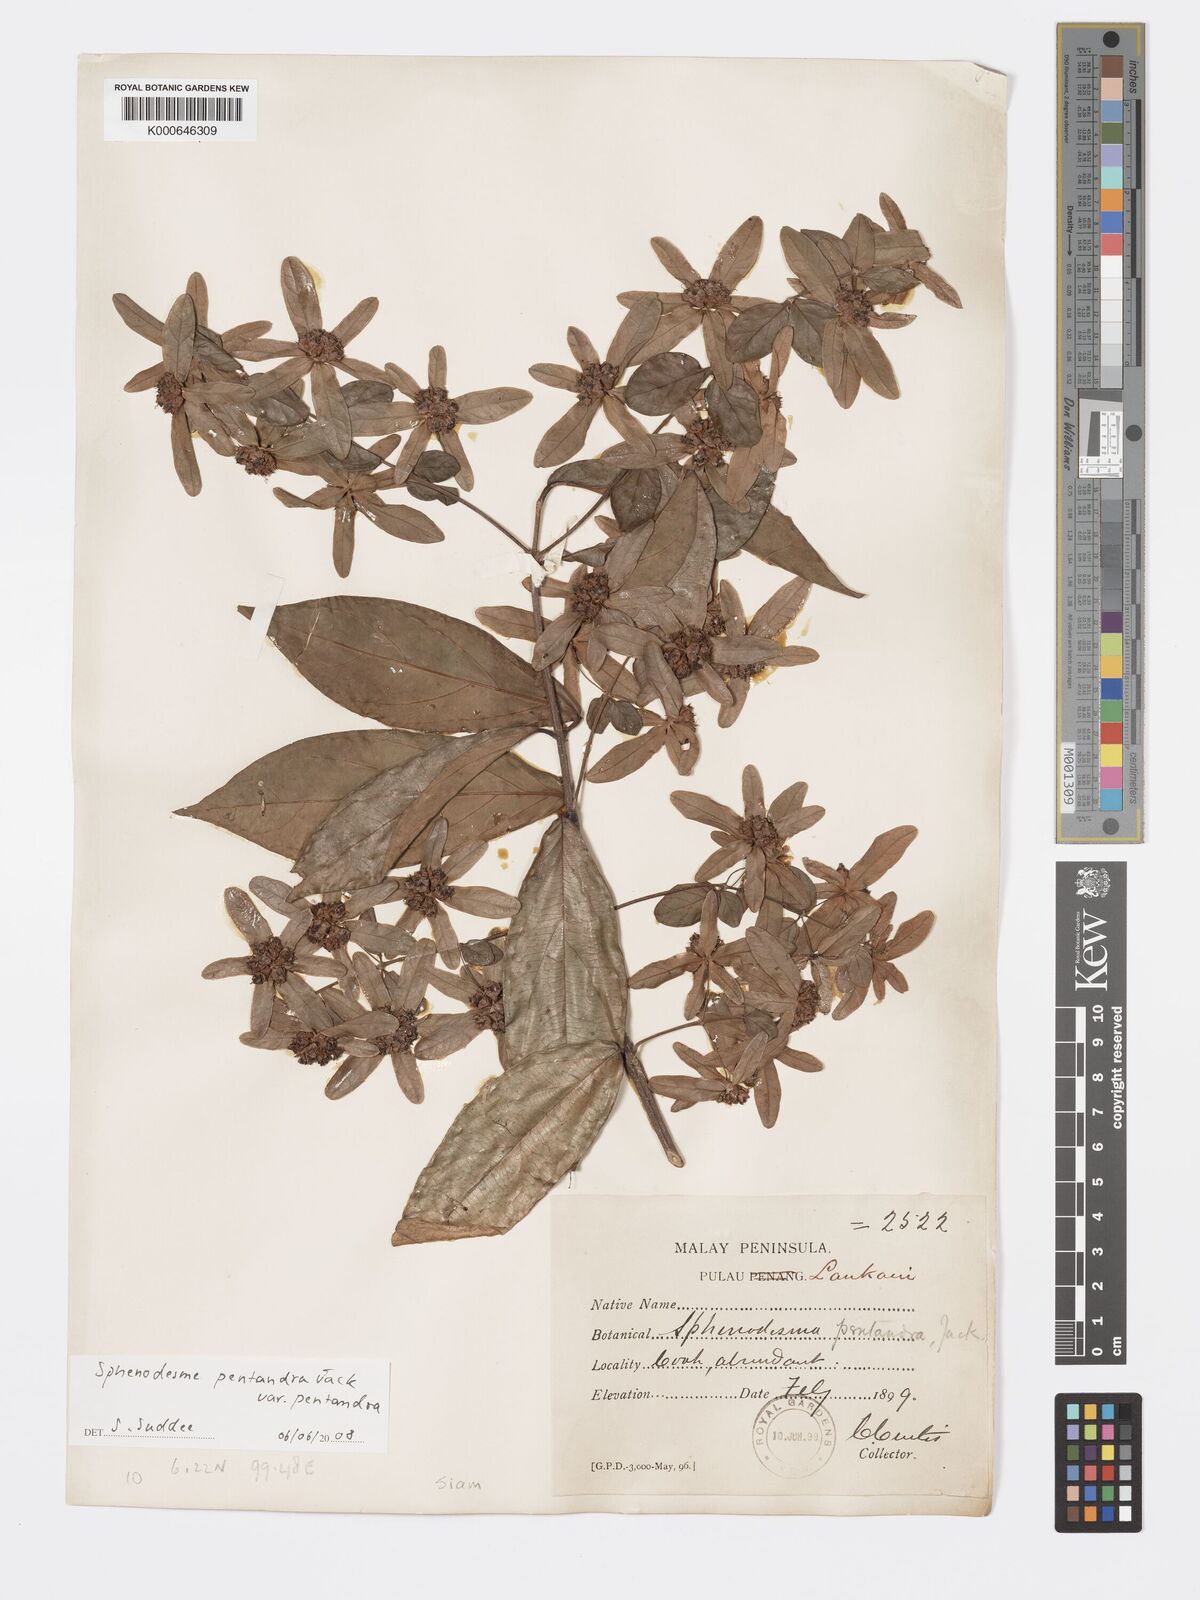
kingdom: Plantae
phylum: Tracheophyta
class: Magnoliopsida
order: Lamiales
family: Lamiaceae
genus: Sphenodesme
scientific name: Sphenodesme pentandra
